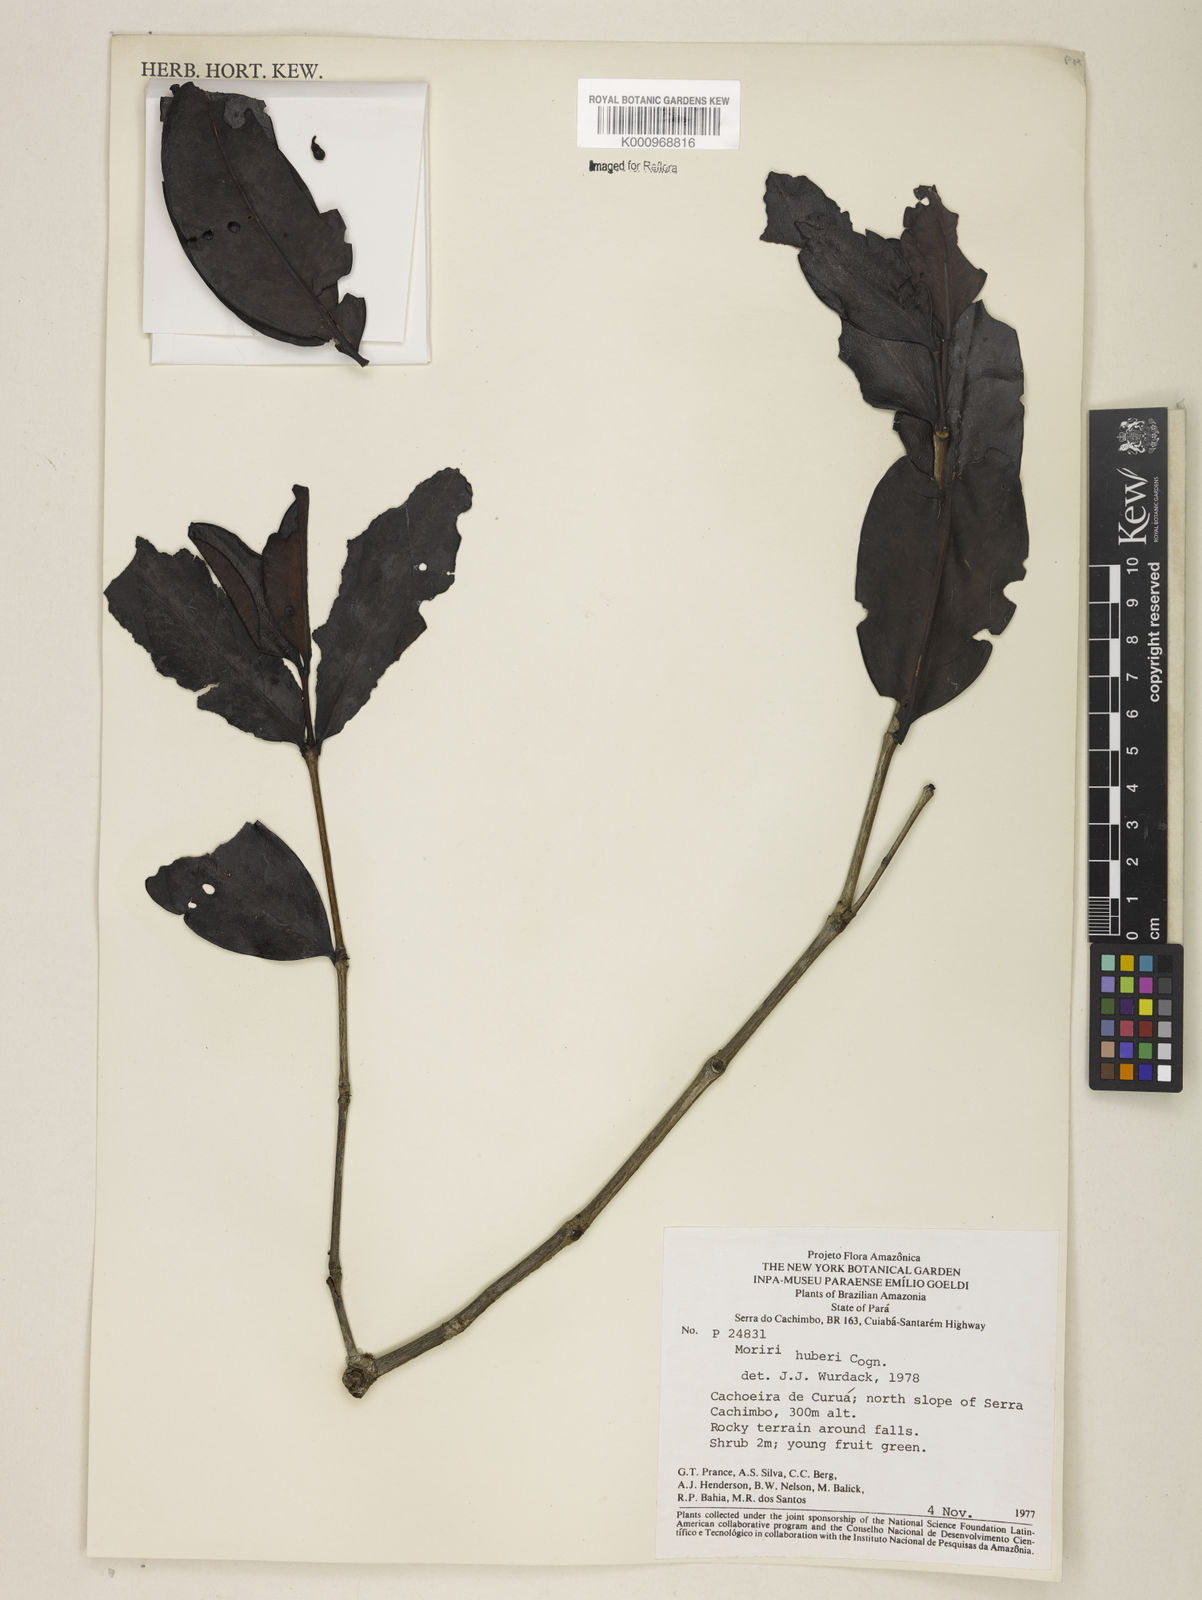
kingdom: Plantae
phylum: Tracheophyta
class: Magnoliopsida
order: Myrtales
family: Melastomataceae
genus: Mouriri
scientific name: Mouriri huberi
